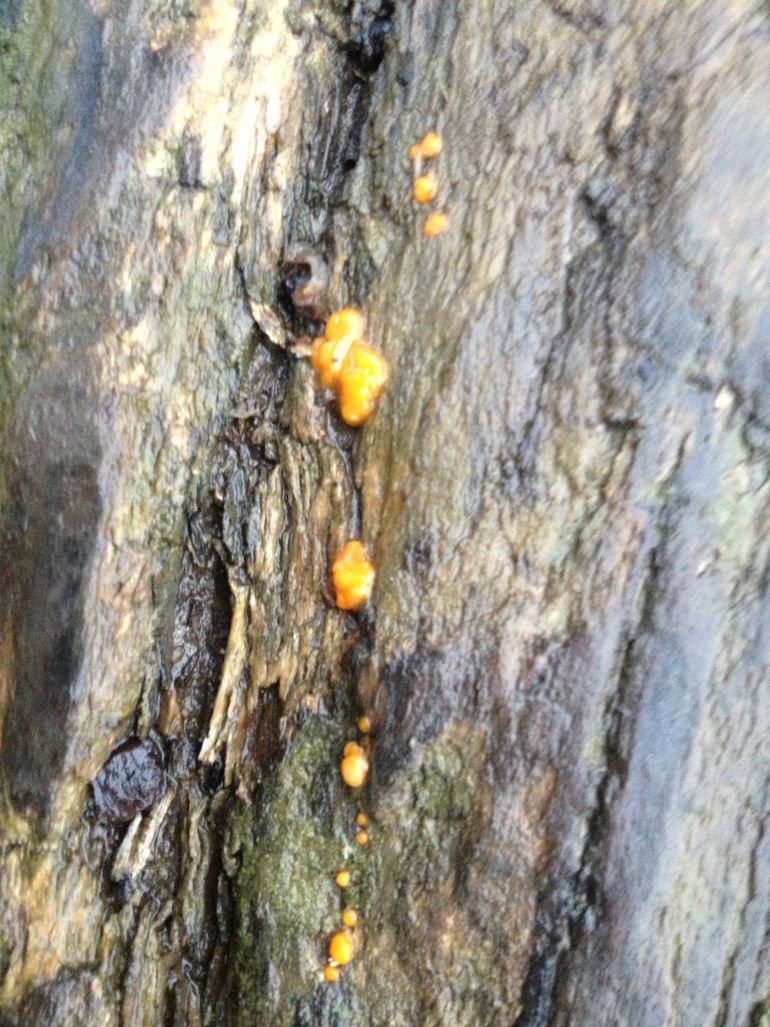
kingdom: Fungi
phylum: Basidiomycota
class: Dacrymycetes
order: Dacrymycetales
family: Dacrymycetaceae
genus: Dacrymyces
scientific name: Dacrymyces stillatus
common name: almindelig tåresvamp
